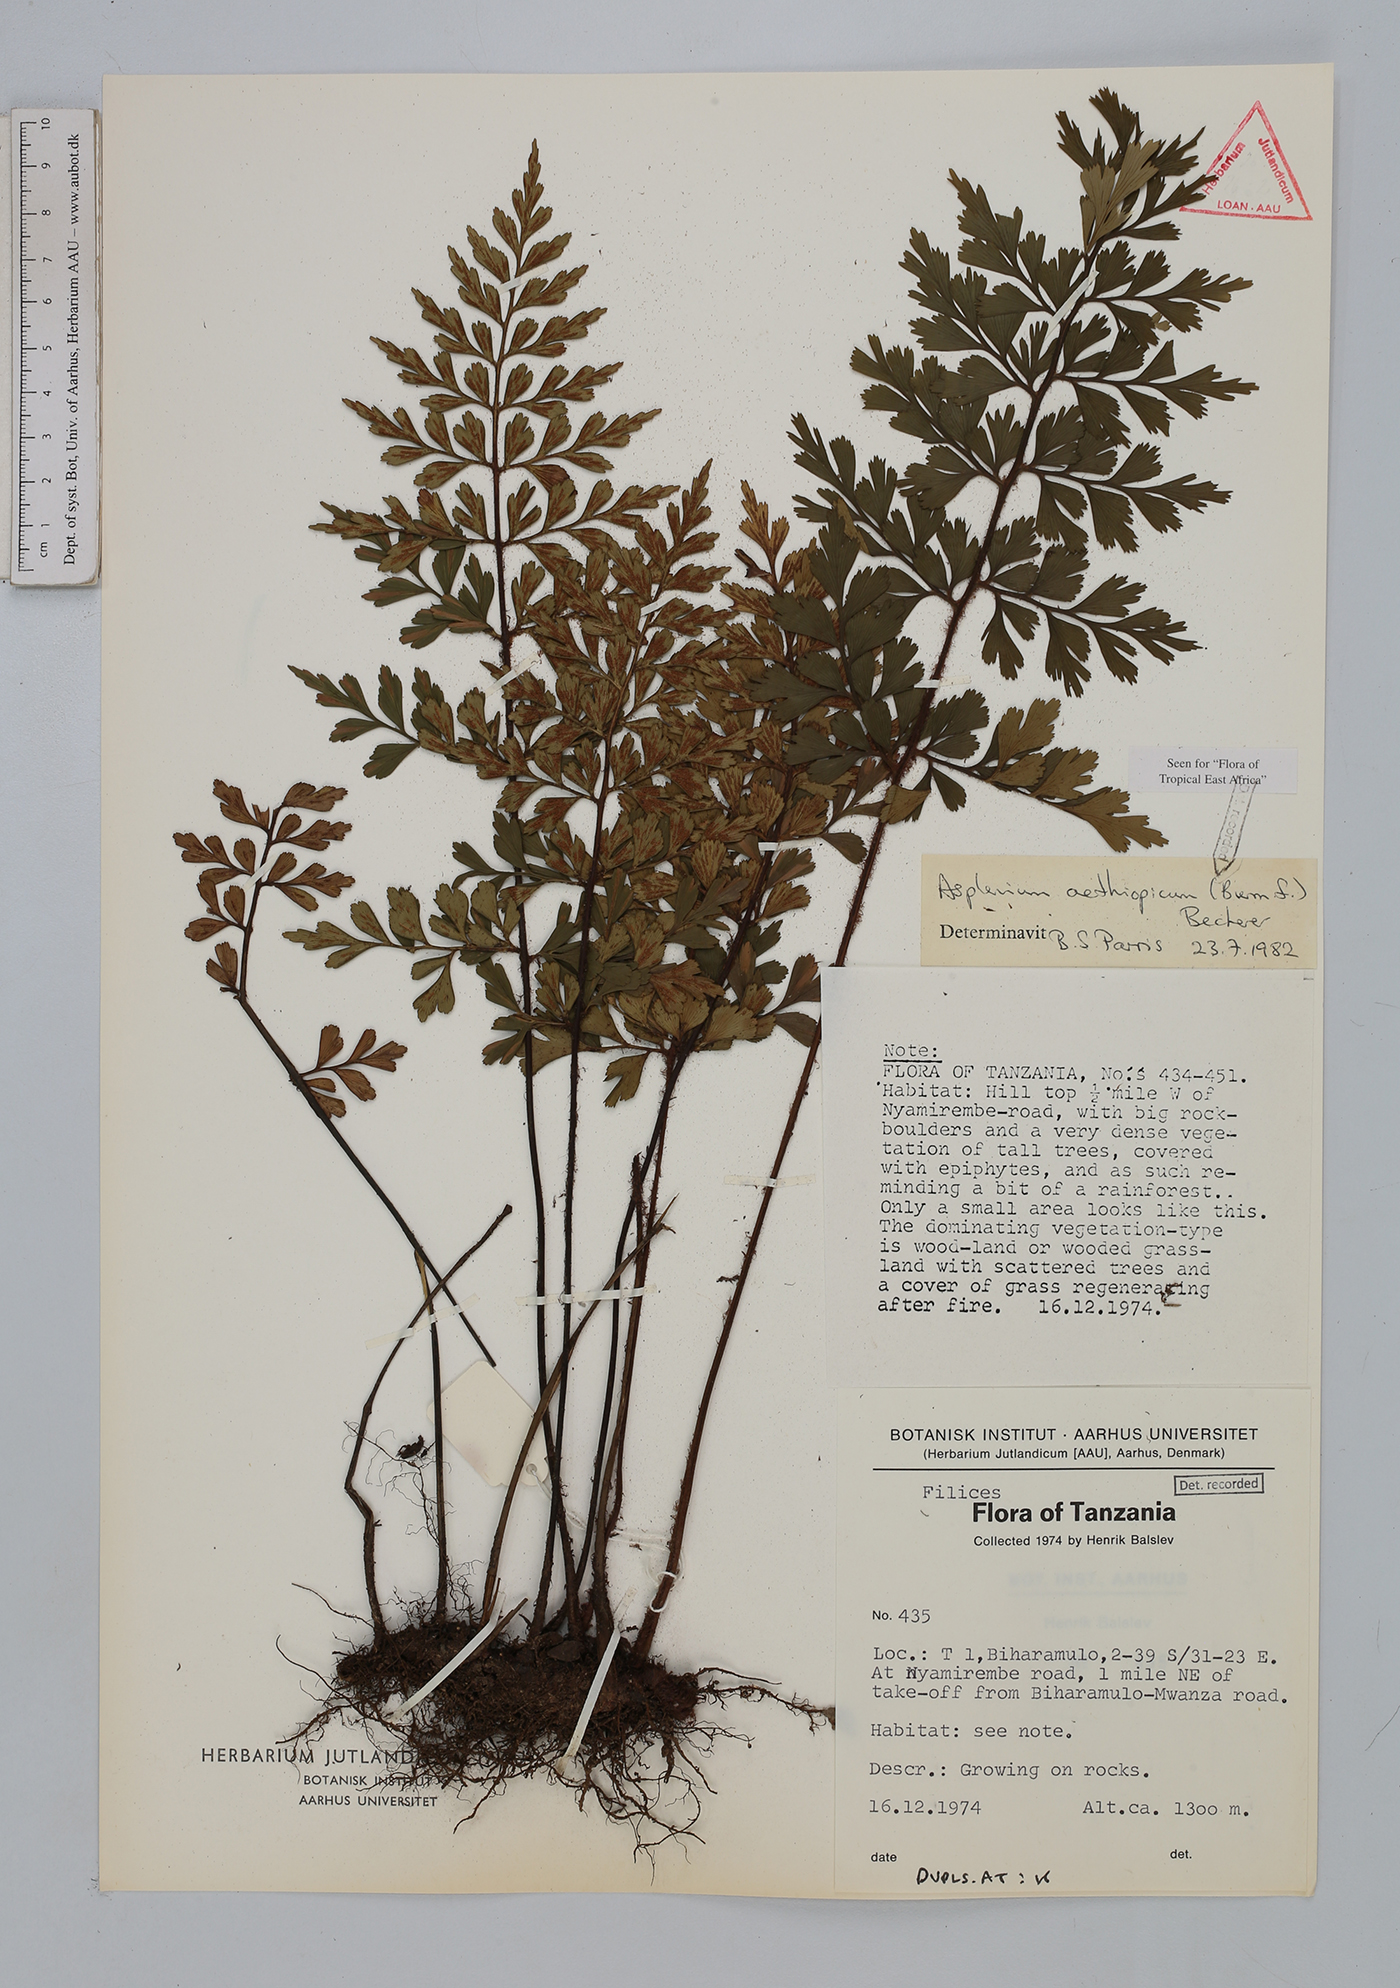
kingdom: Plantae
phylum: Tracheophyta
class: Polypodiopsida
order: Polypodiales
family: Aspleniaceae
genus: Asplenium
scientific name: Asplenium aethiopicum
